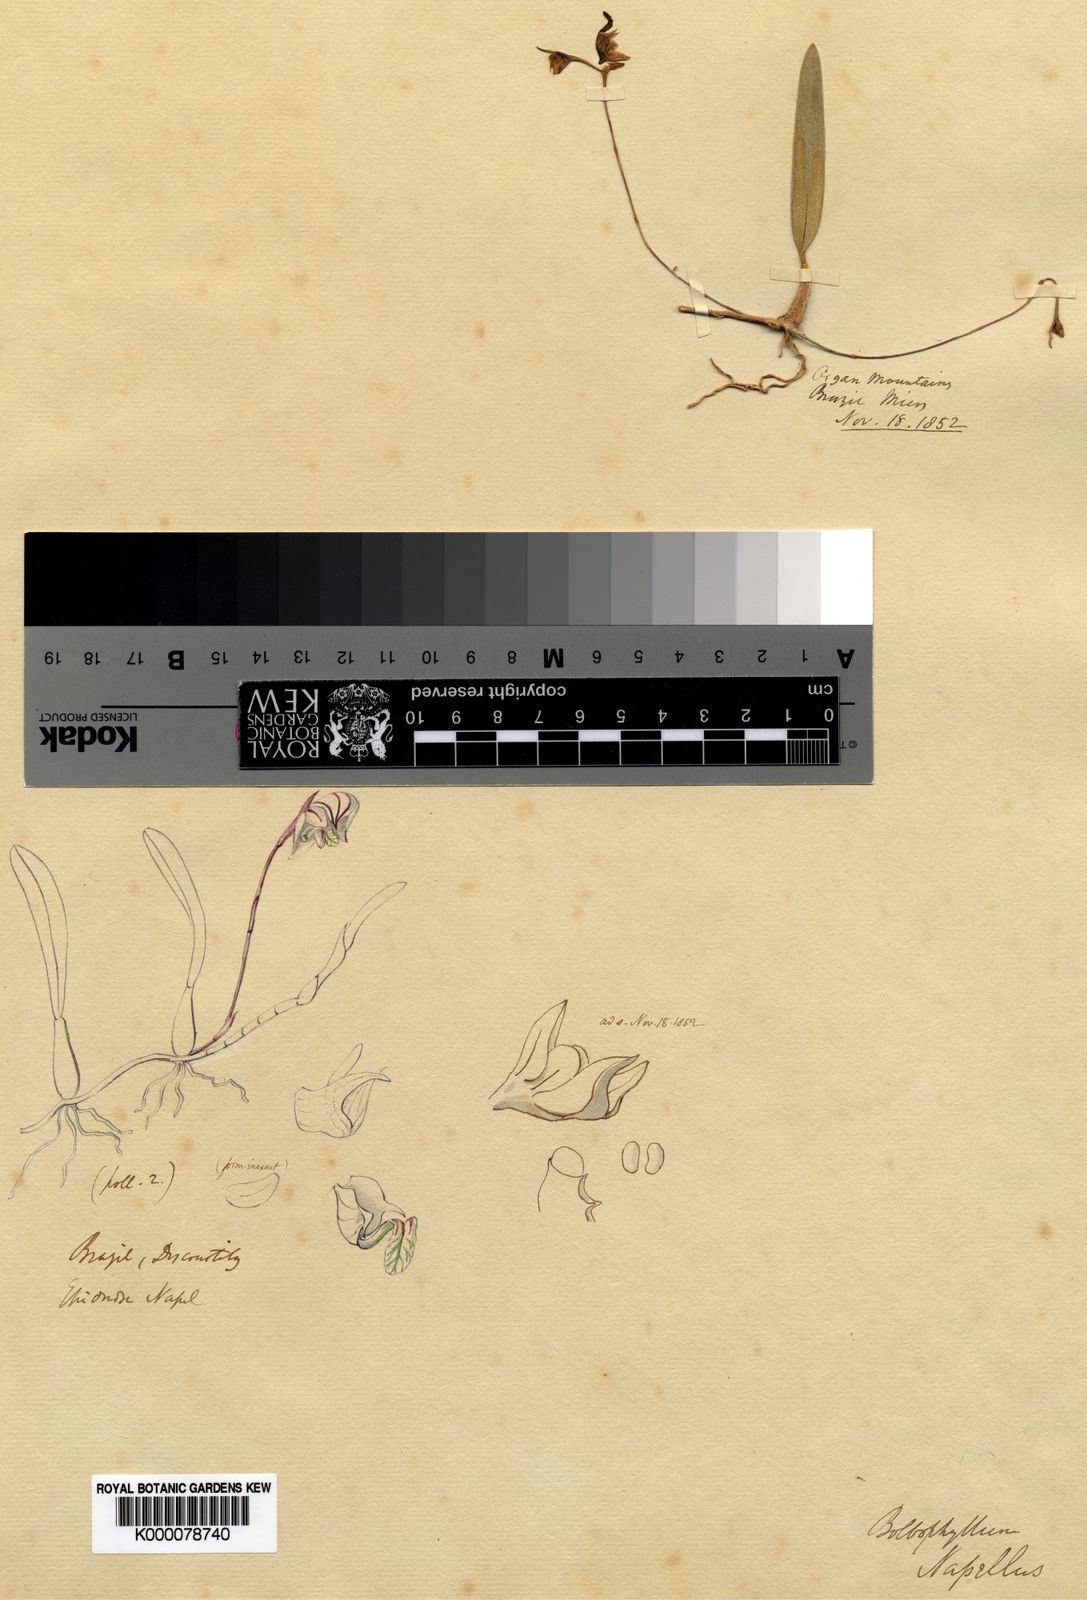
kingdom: Plantae
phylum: Tracheophyta
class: Liliopsida
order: Asparagales
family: Orchidaceae
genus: Bulbophyllum
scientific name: Bulbophyllum
